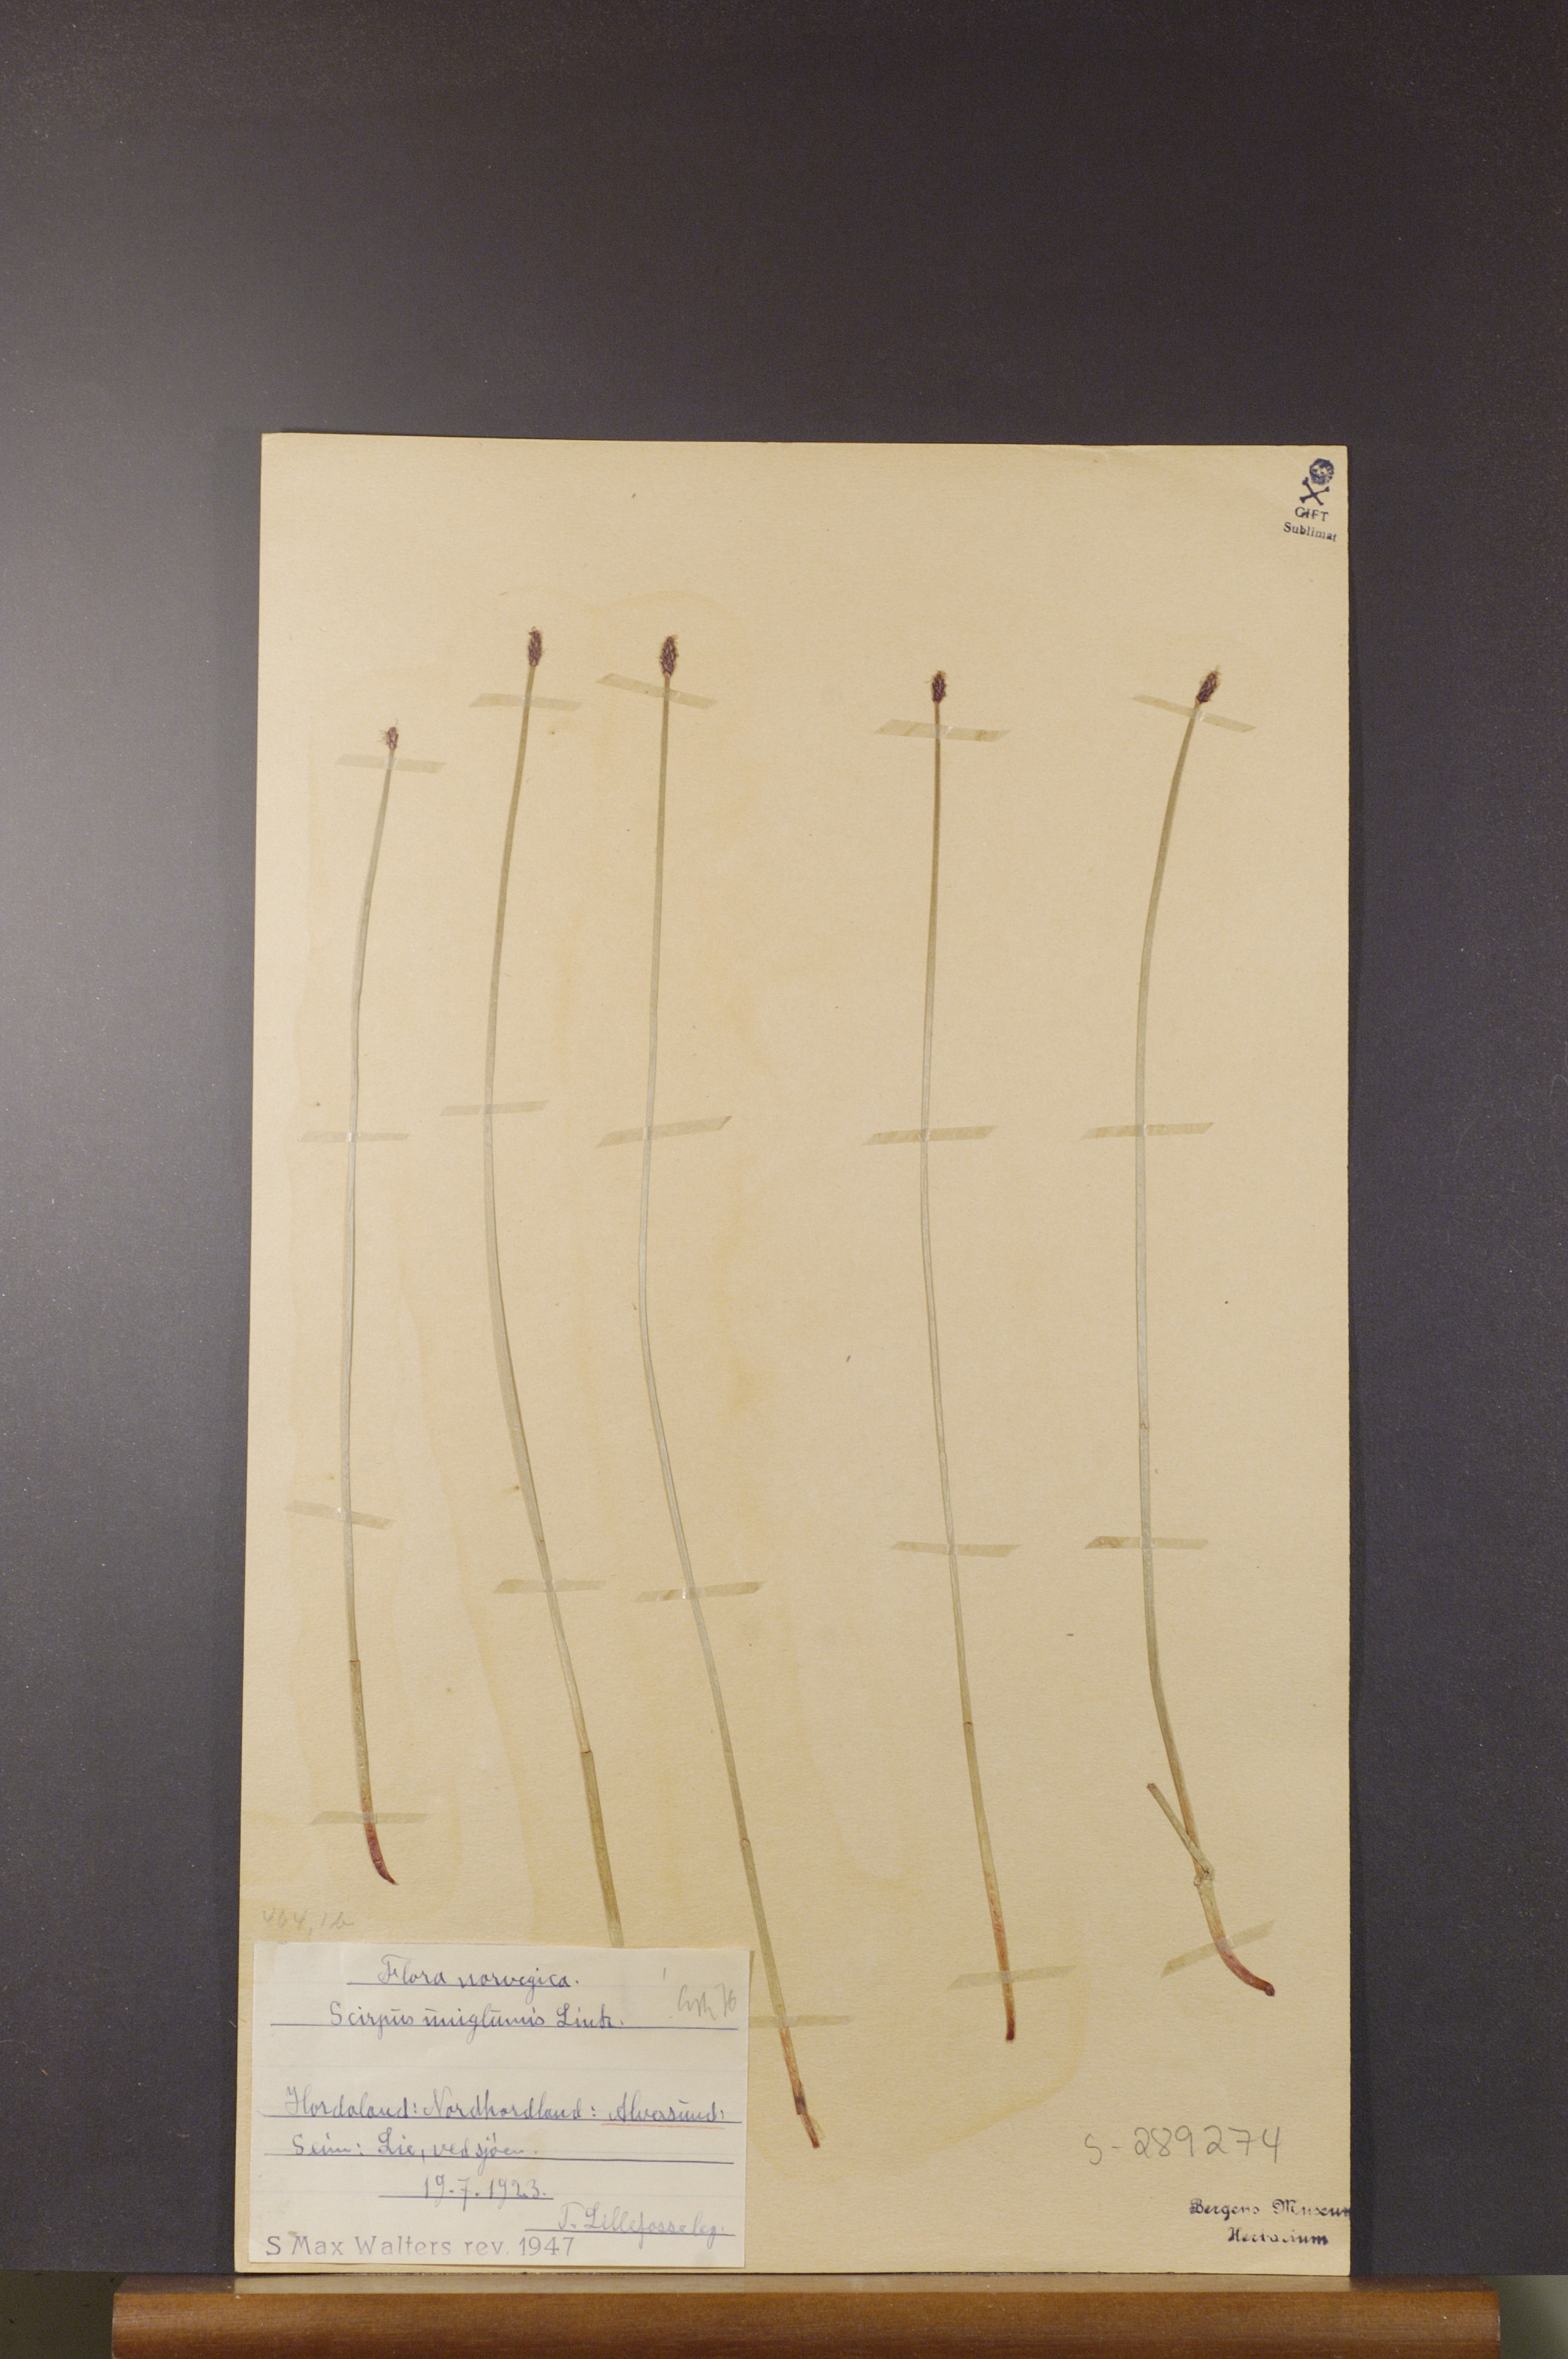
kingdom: Plantae
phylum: Tracheophyta
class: Liliopsida
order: Poales
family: Cyperaceae
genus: Eleocharis
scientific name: Eleocharis uniglumis
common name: Slender spike-rush
